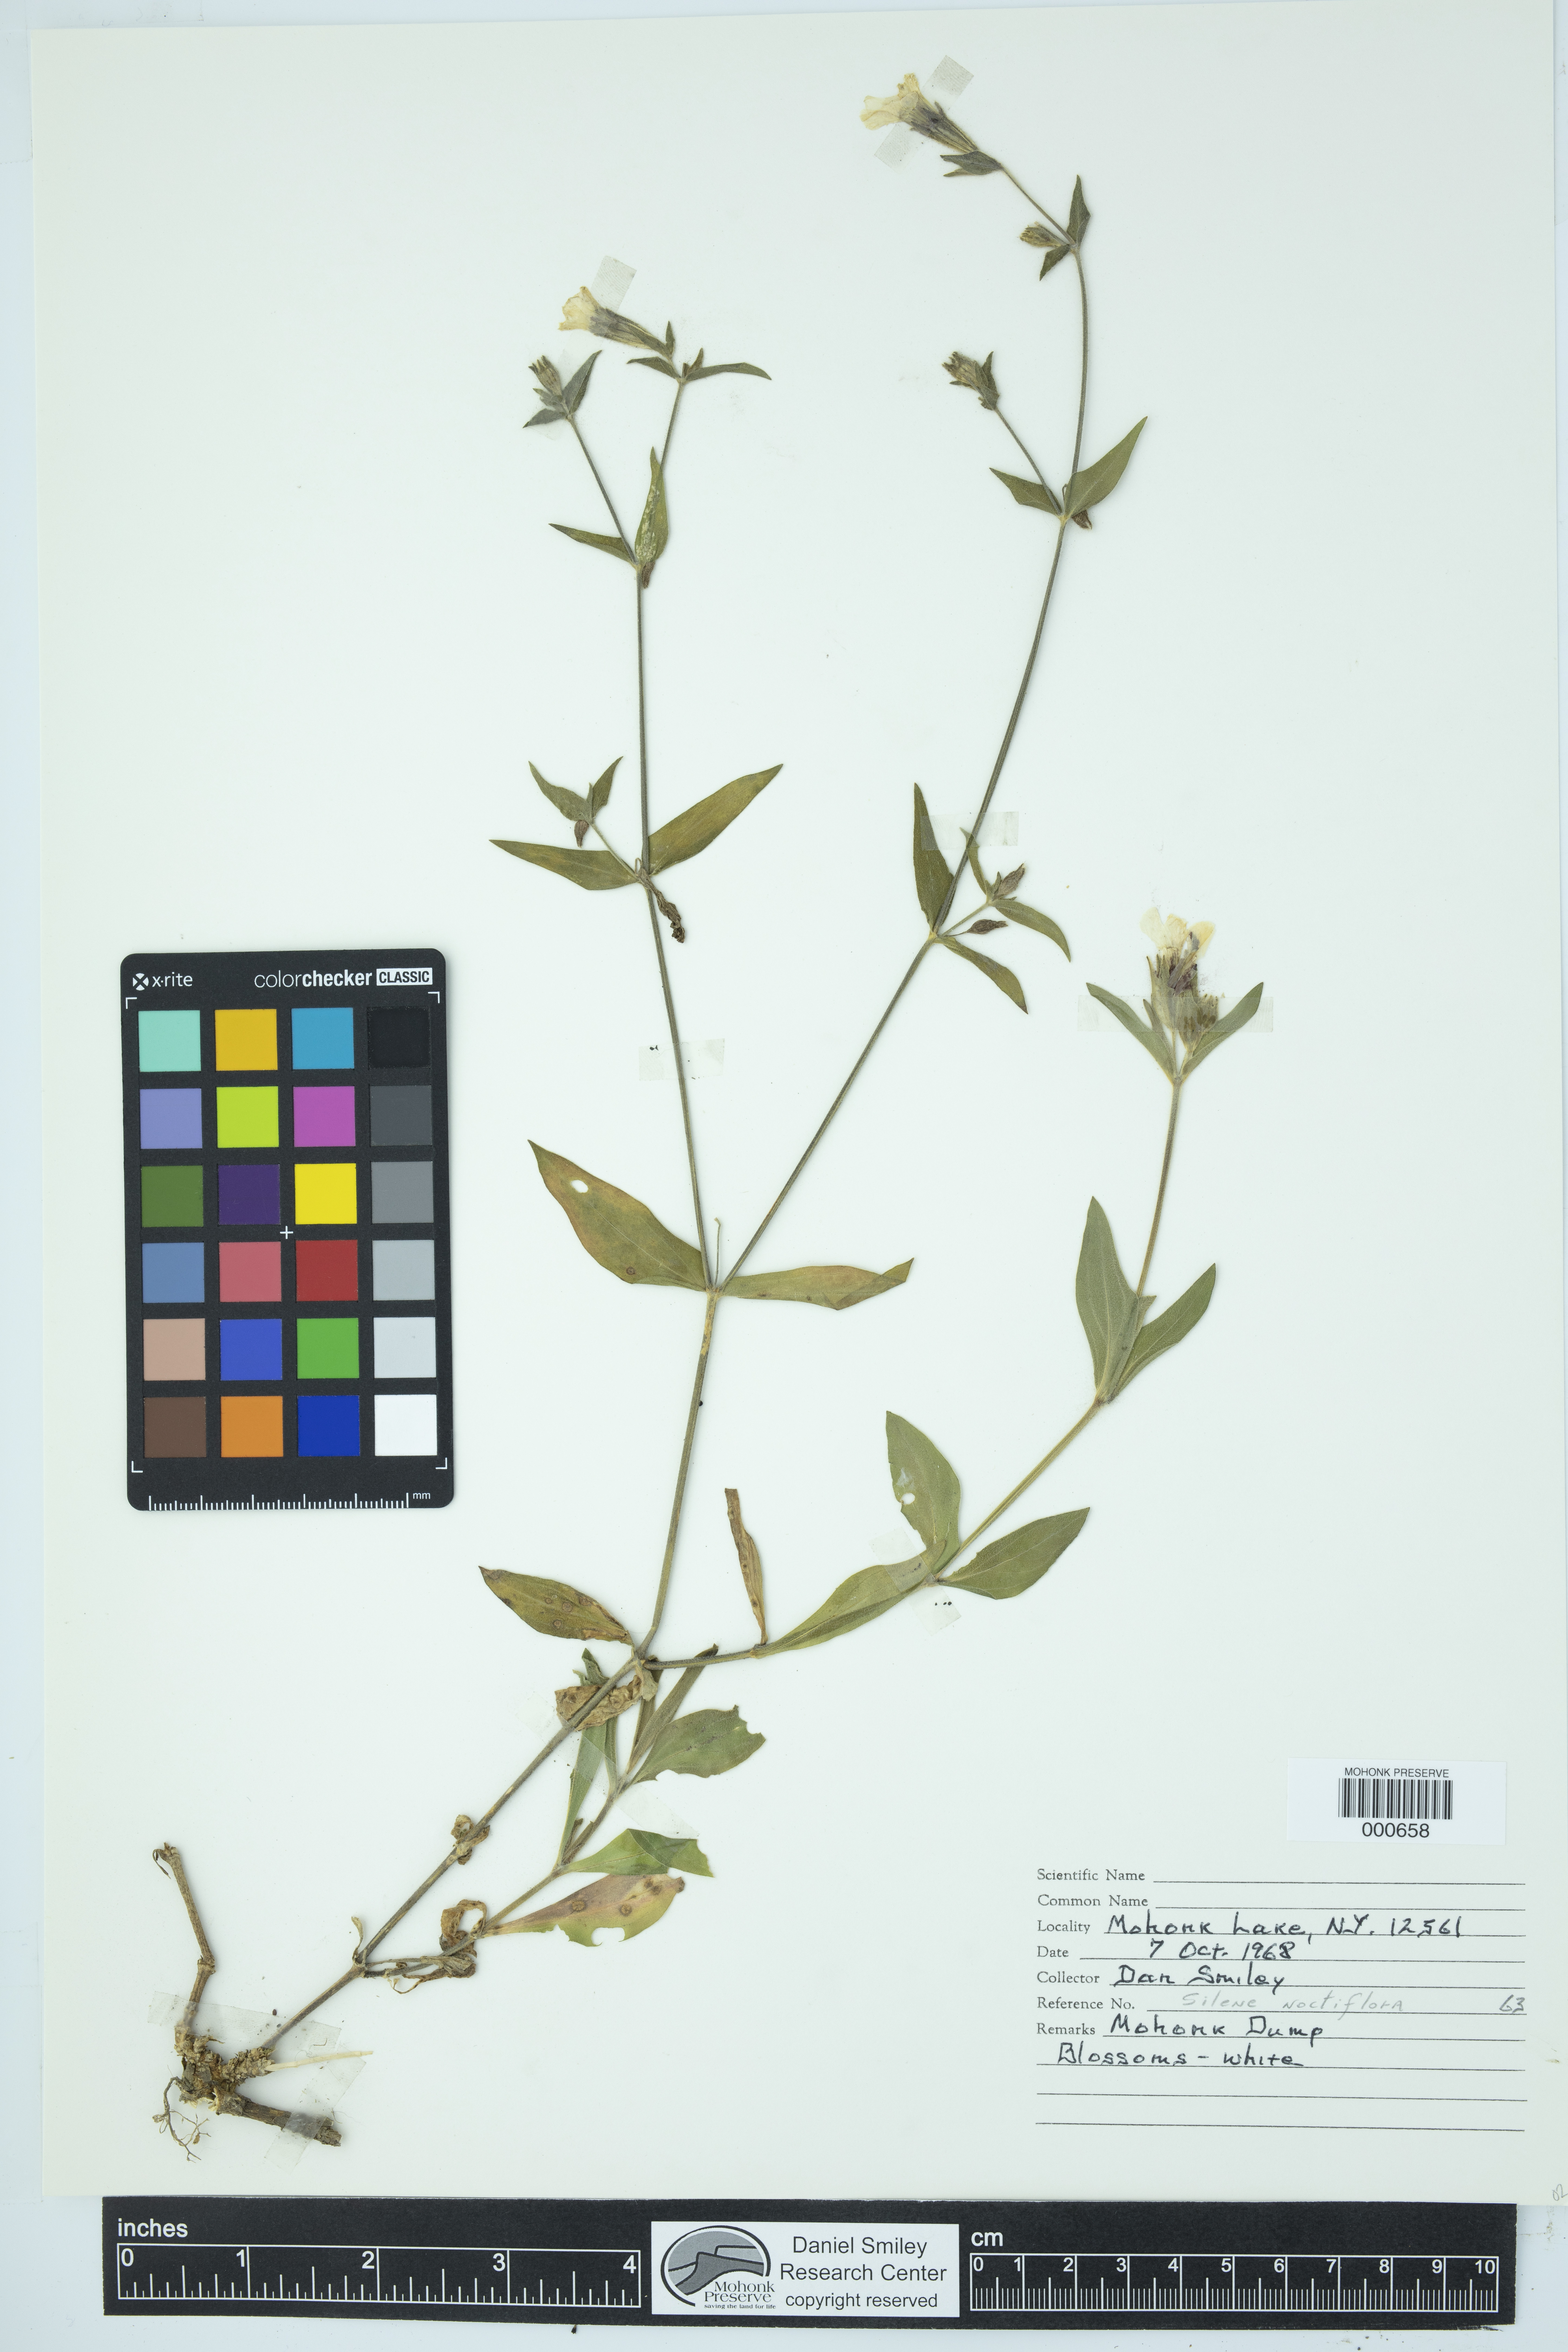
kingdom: Plantae
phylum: Tracheophyta
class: Magnoliopsida
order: Caryophyllales
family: Caryophyllaceae
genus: Silene
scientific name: Silene noctiflora
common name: Night-flowering catchfly
